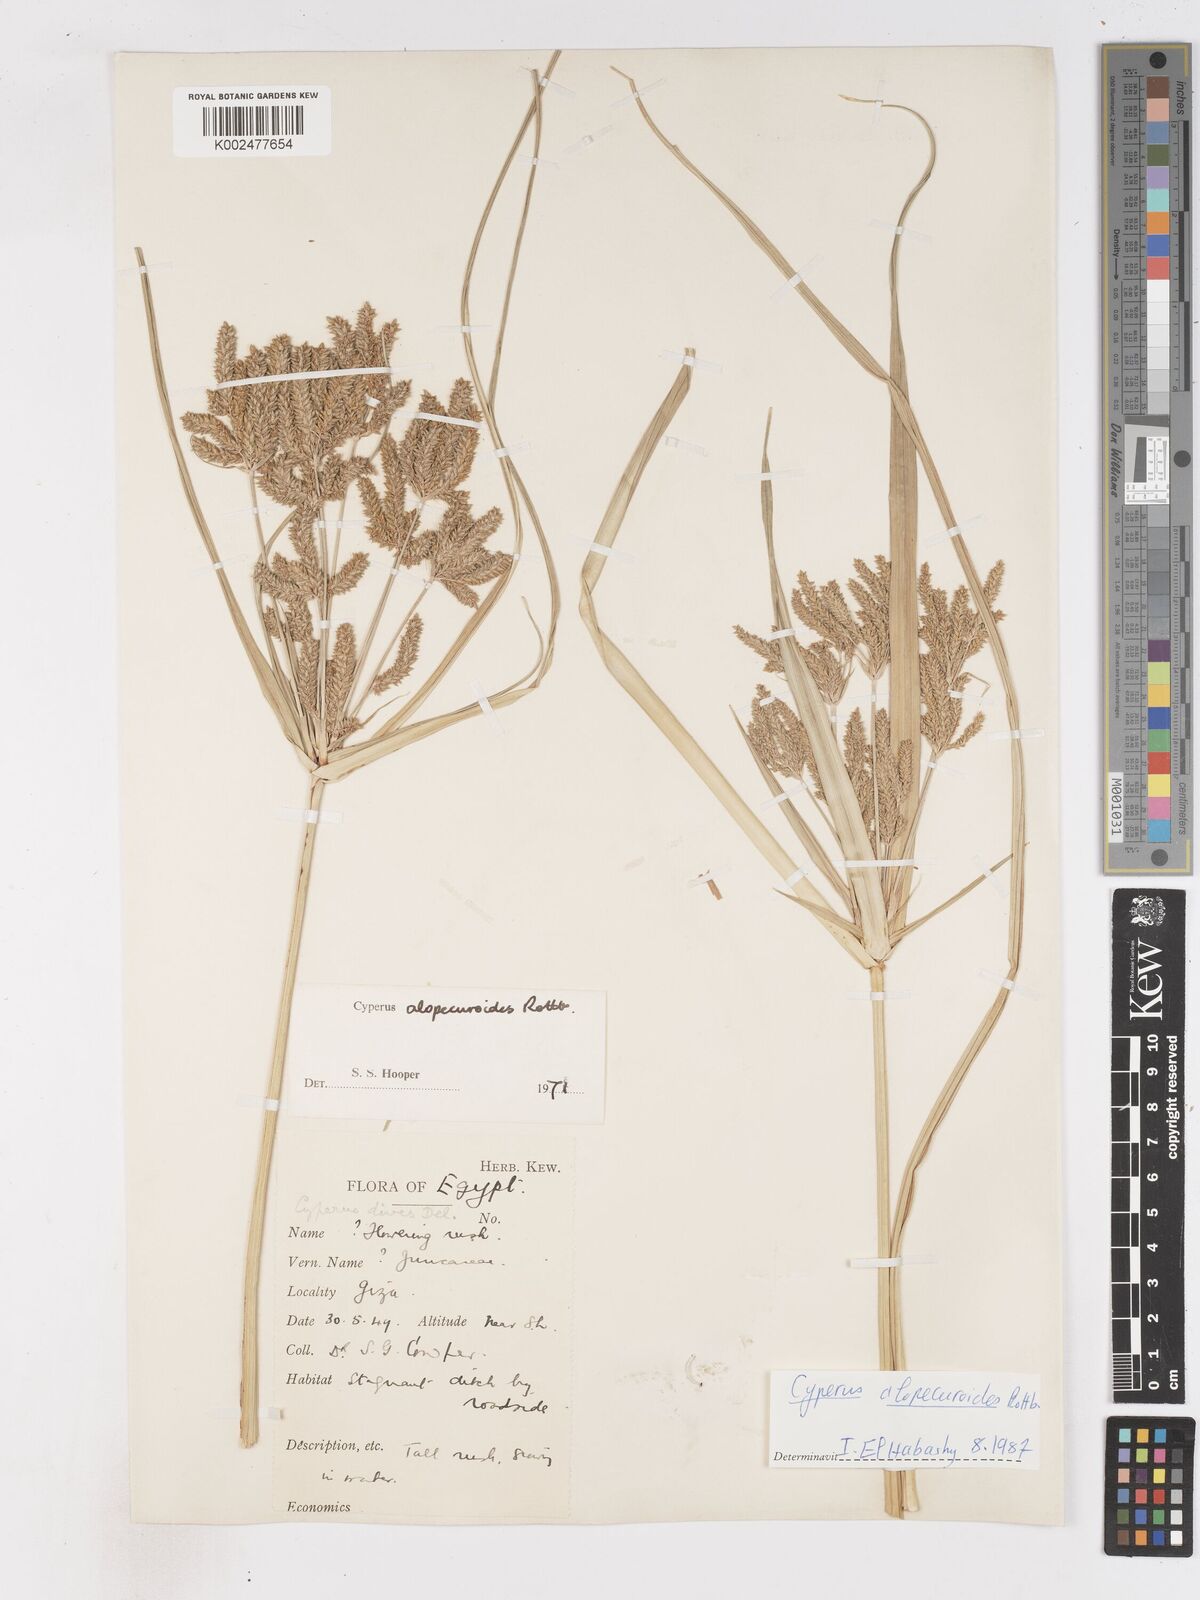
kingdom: Plantae
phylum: Tracheophyta
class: Liliopsida
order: Poales
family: Cyperaceae
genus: Cyperus
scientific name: Cyperus alopecuroides
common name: Foxtail flatsedge
